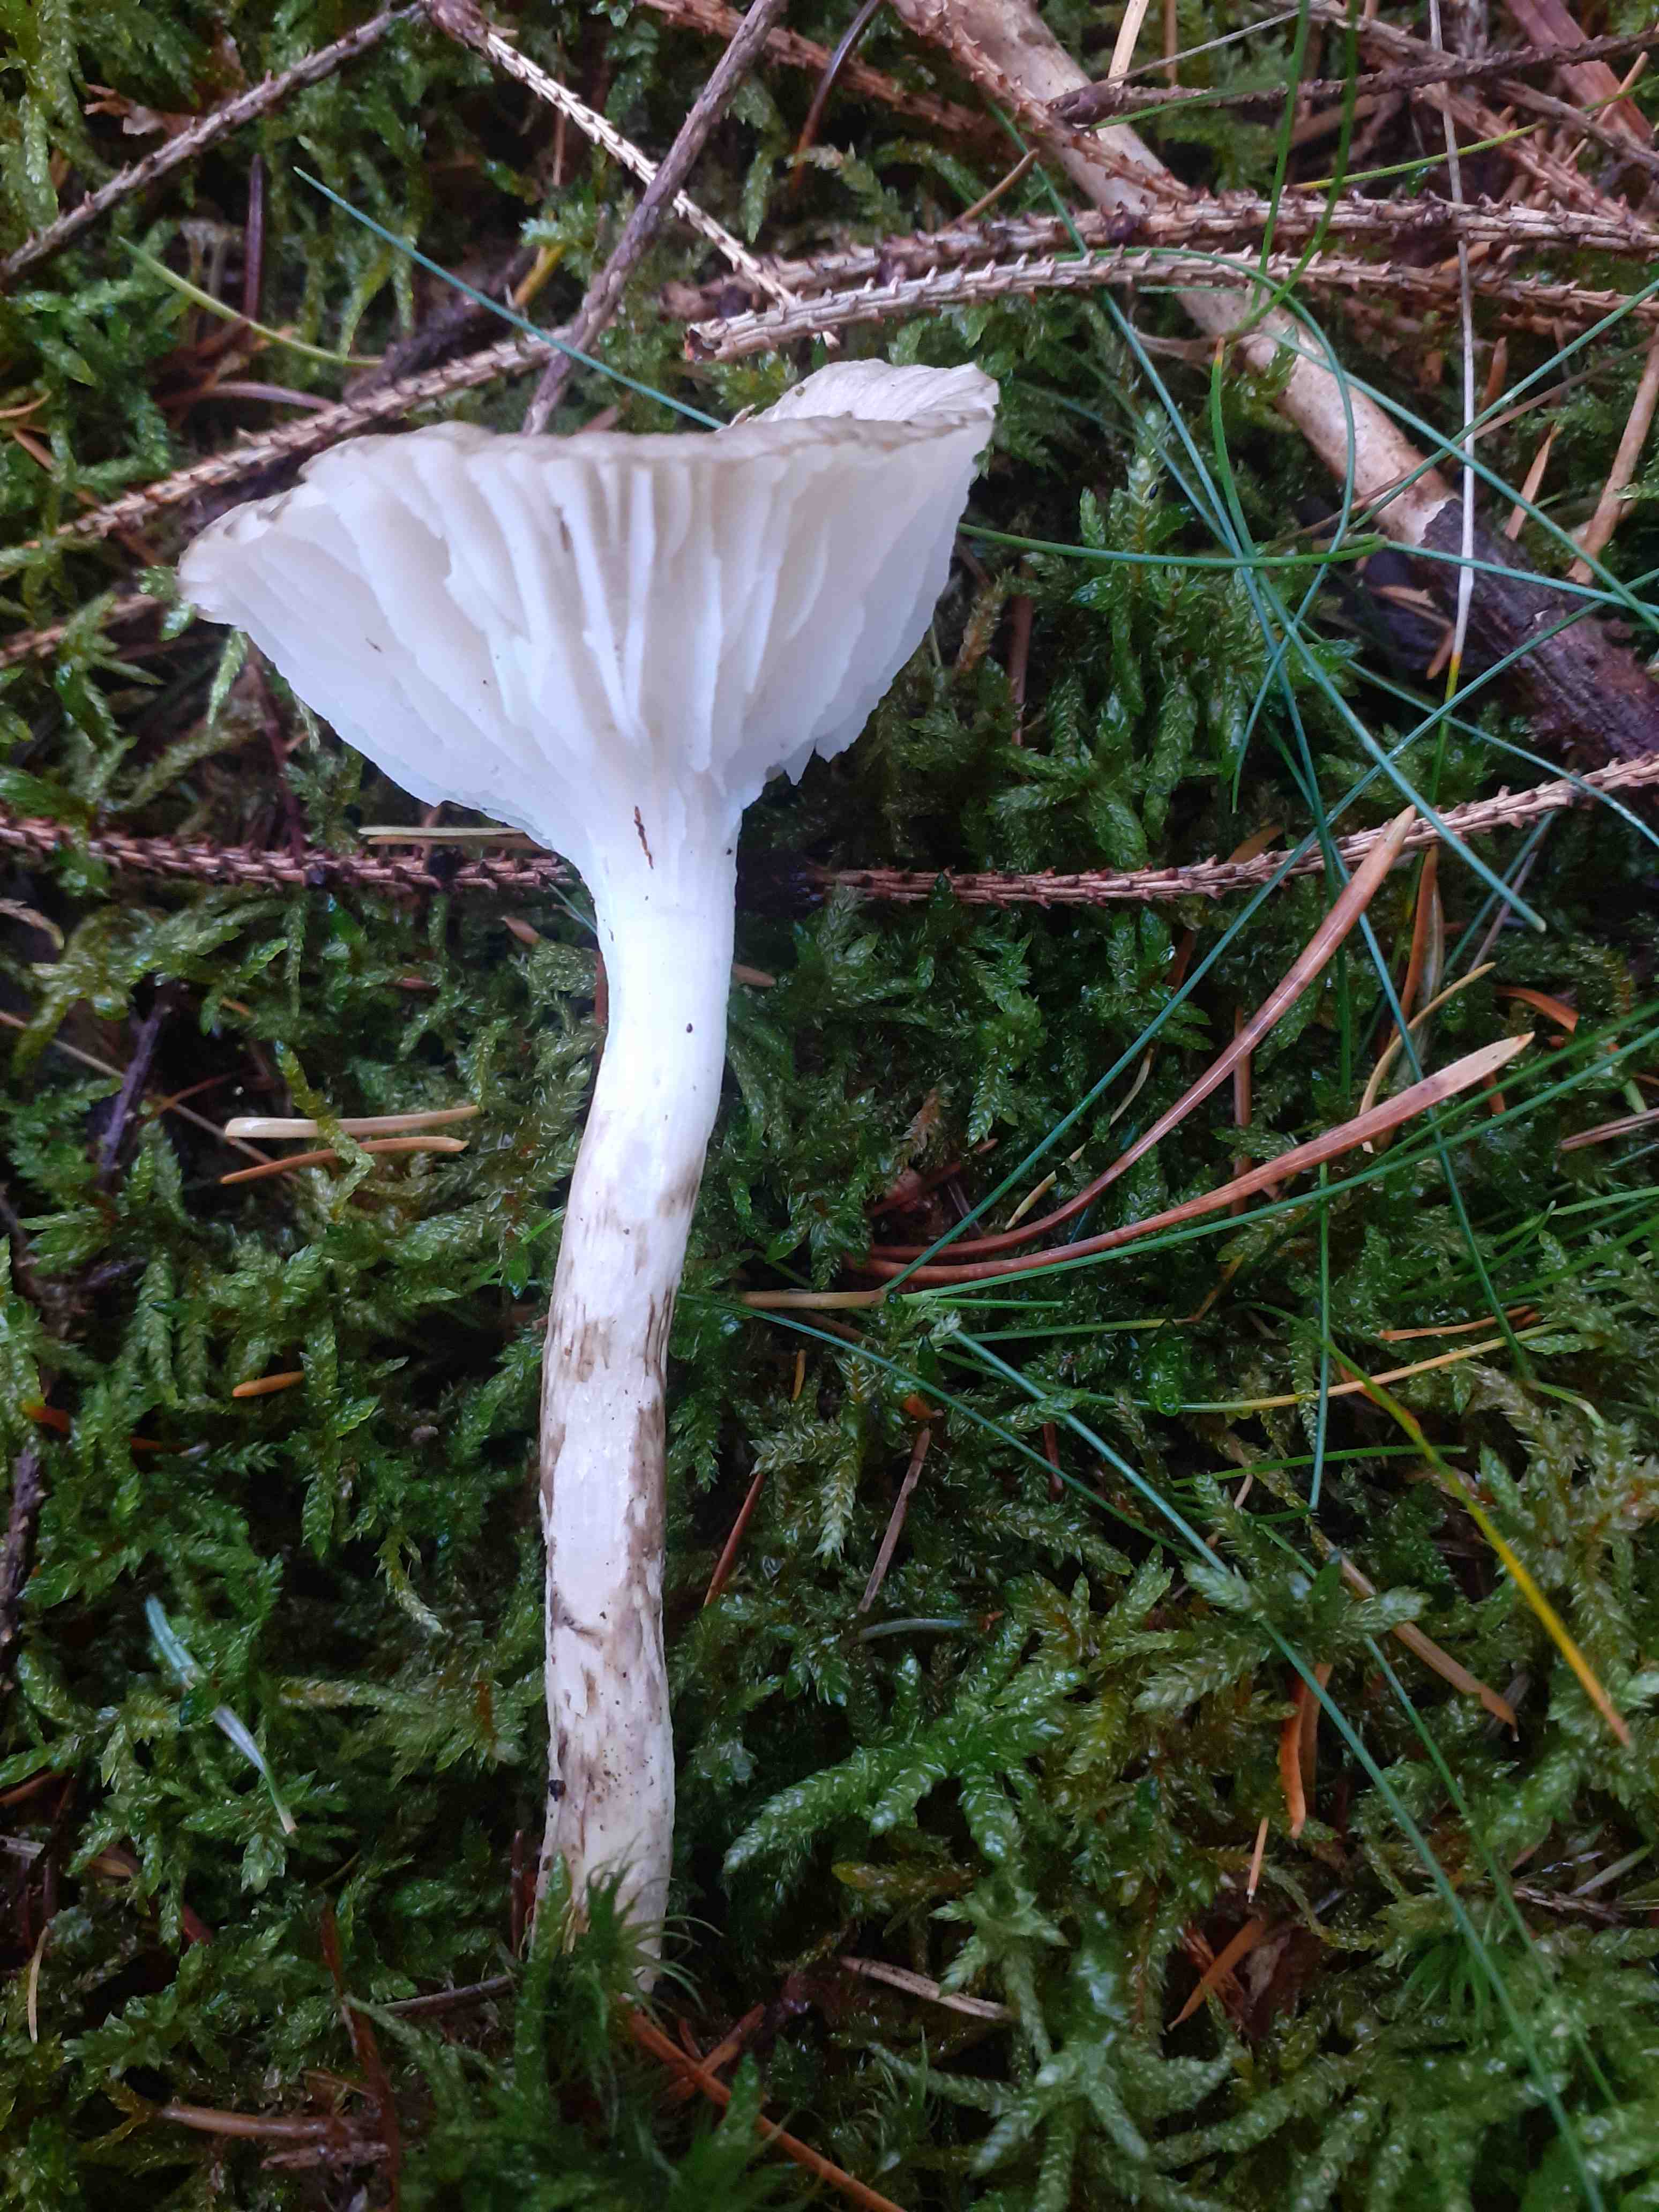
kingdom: Fungi
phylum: Basidiomycota
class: Agaricomycetes
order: Agaricales
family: Hygrophoraceae
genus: Hygrophorus
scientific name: Hygrophorus olivaceoalbus
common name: hvidbrun sneglehat
